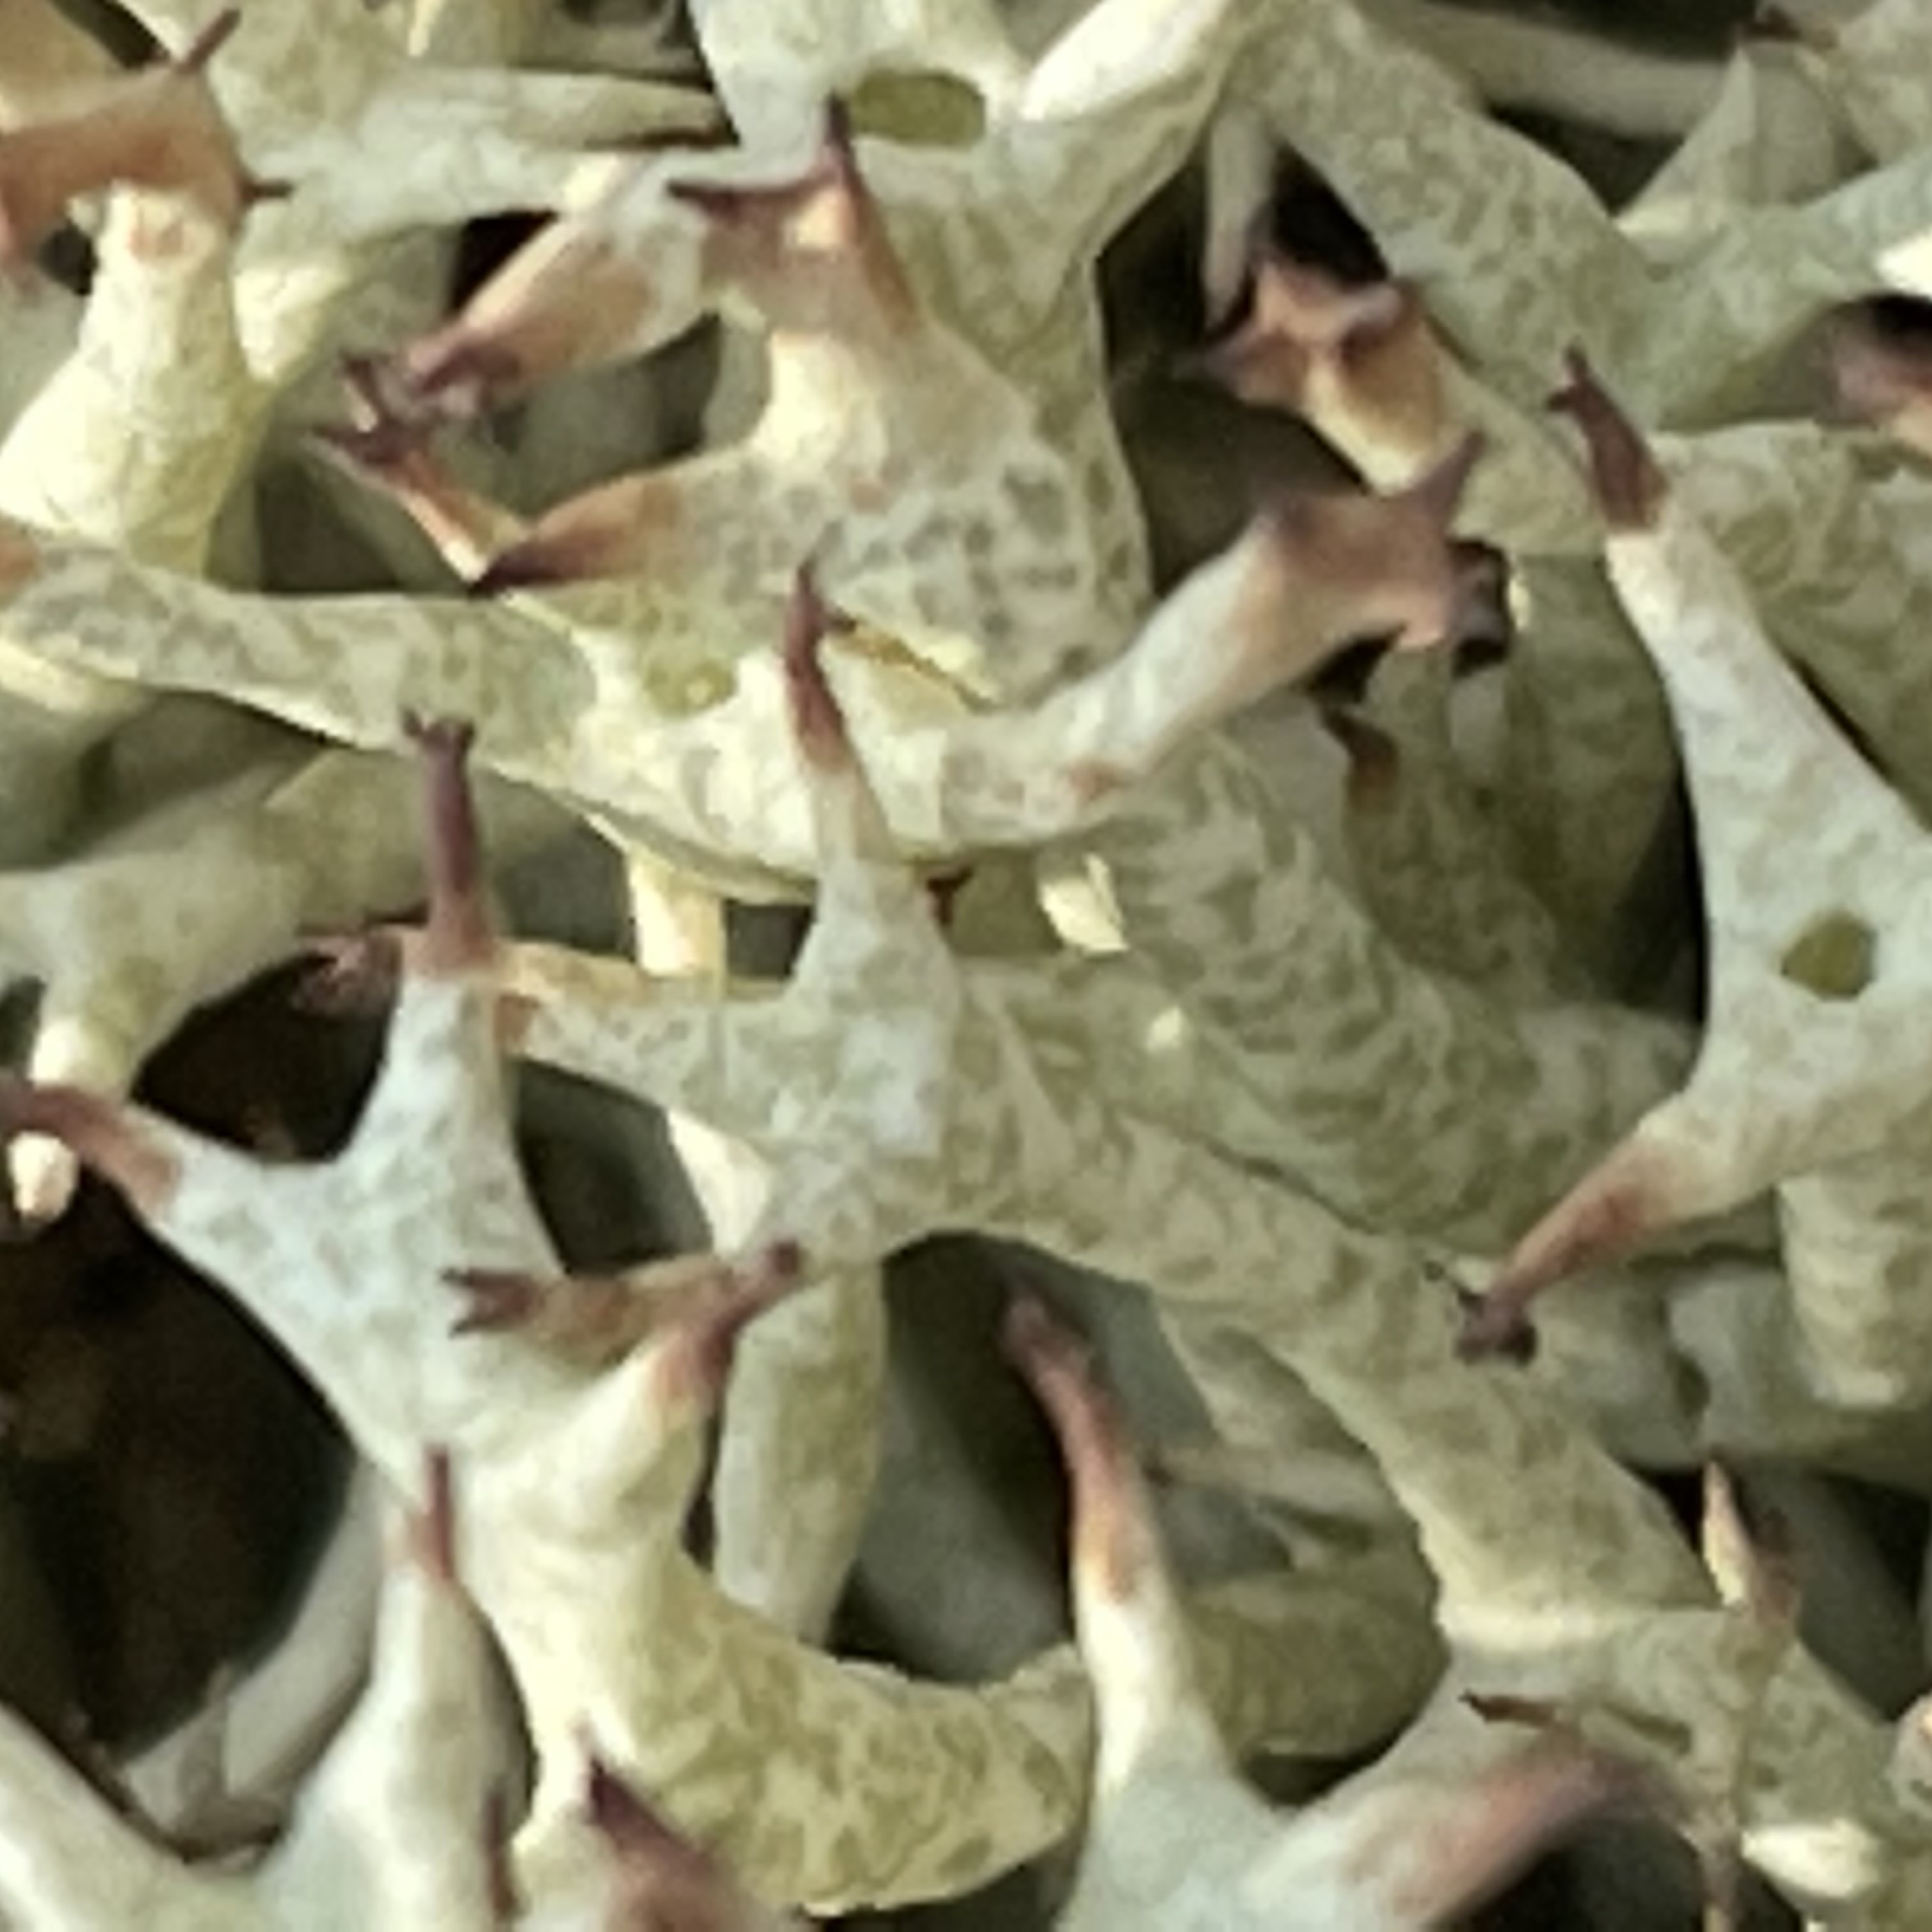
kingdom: Fungi
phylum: Ascomycota
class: Lecanoromycetes
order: Lecanorales
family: Cladoniaceae
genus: Cladonia
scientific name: Cladonia uncialis
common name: pigget bægerlav
